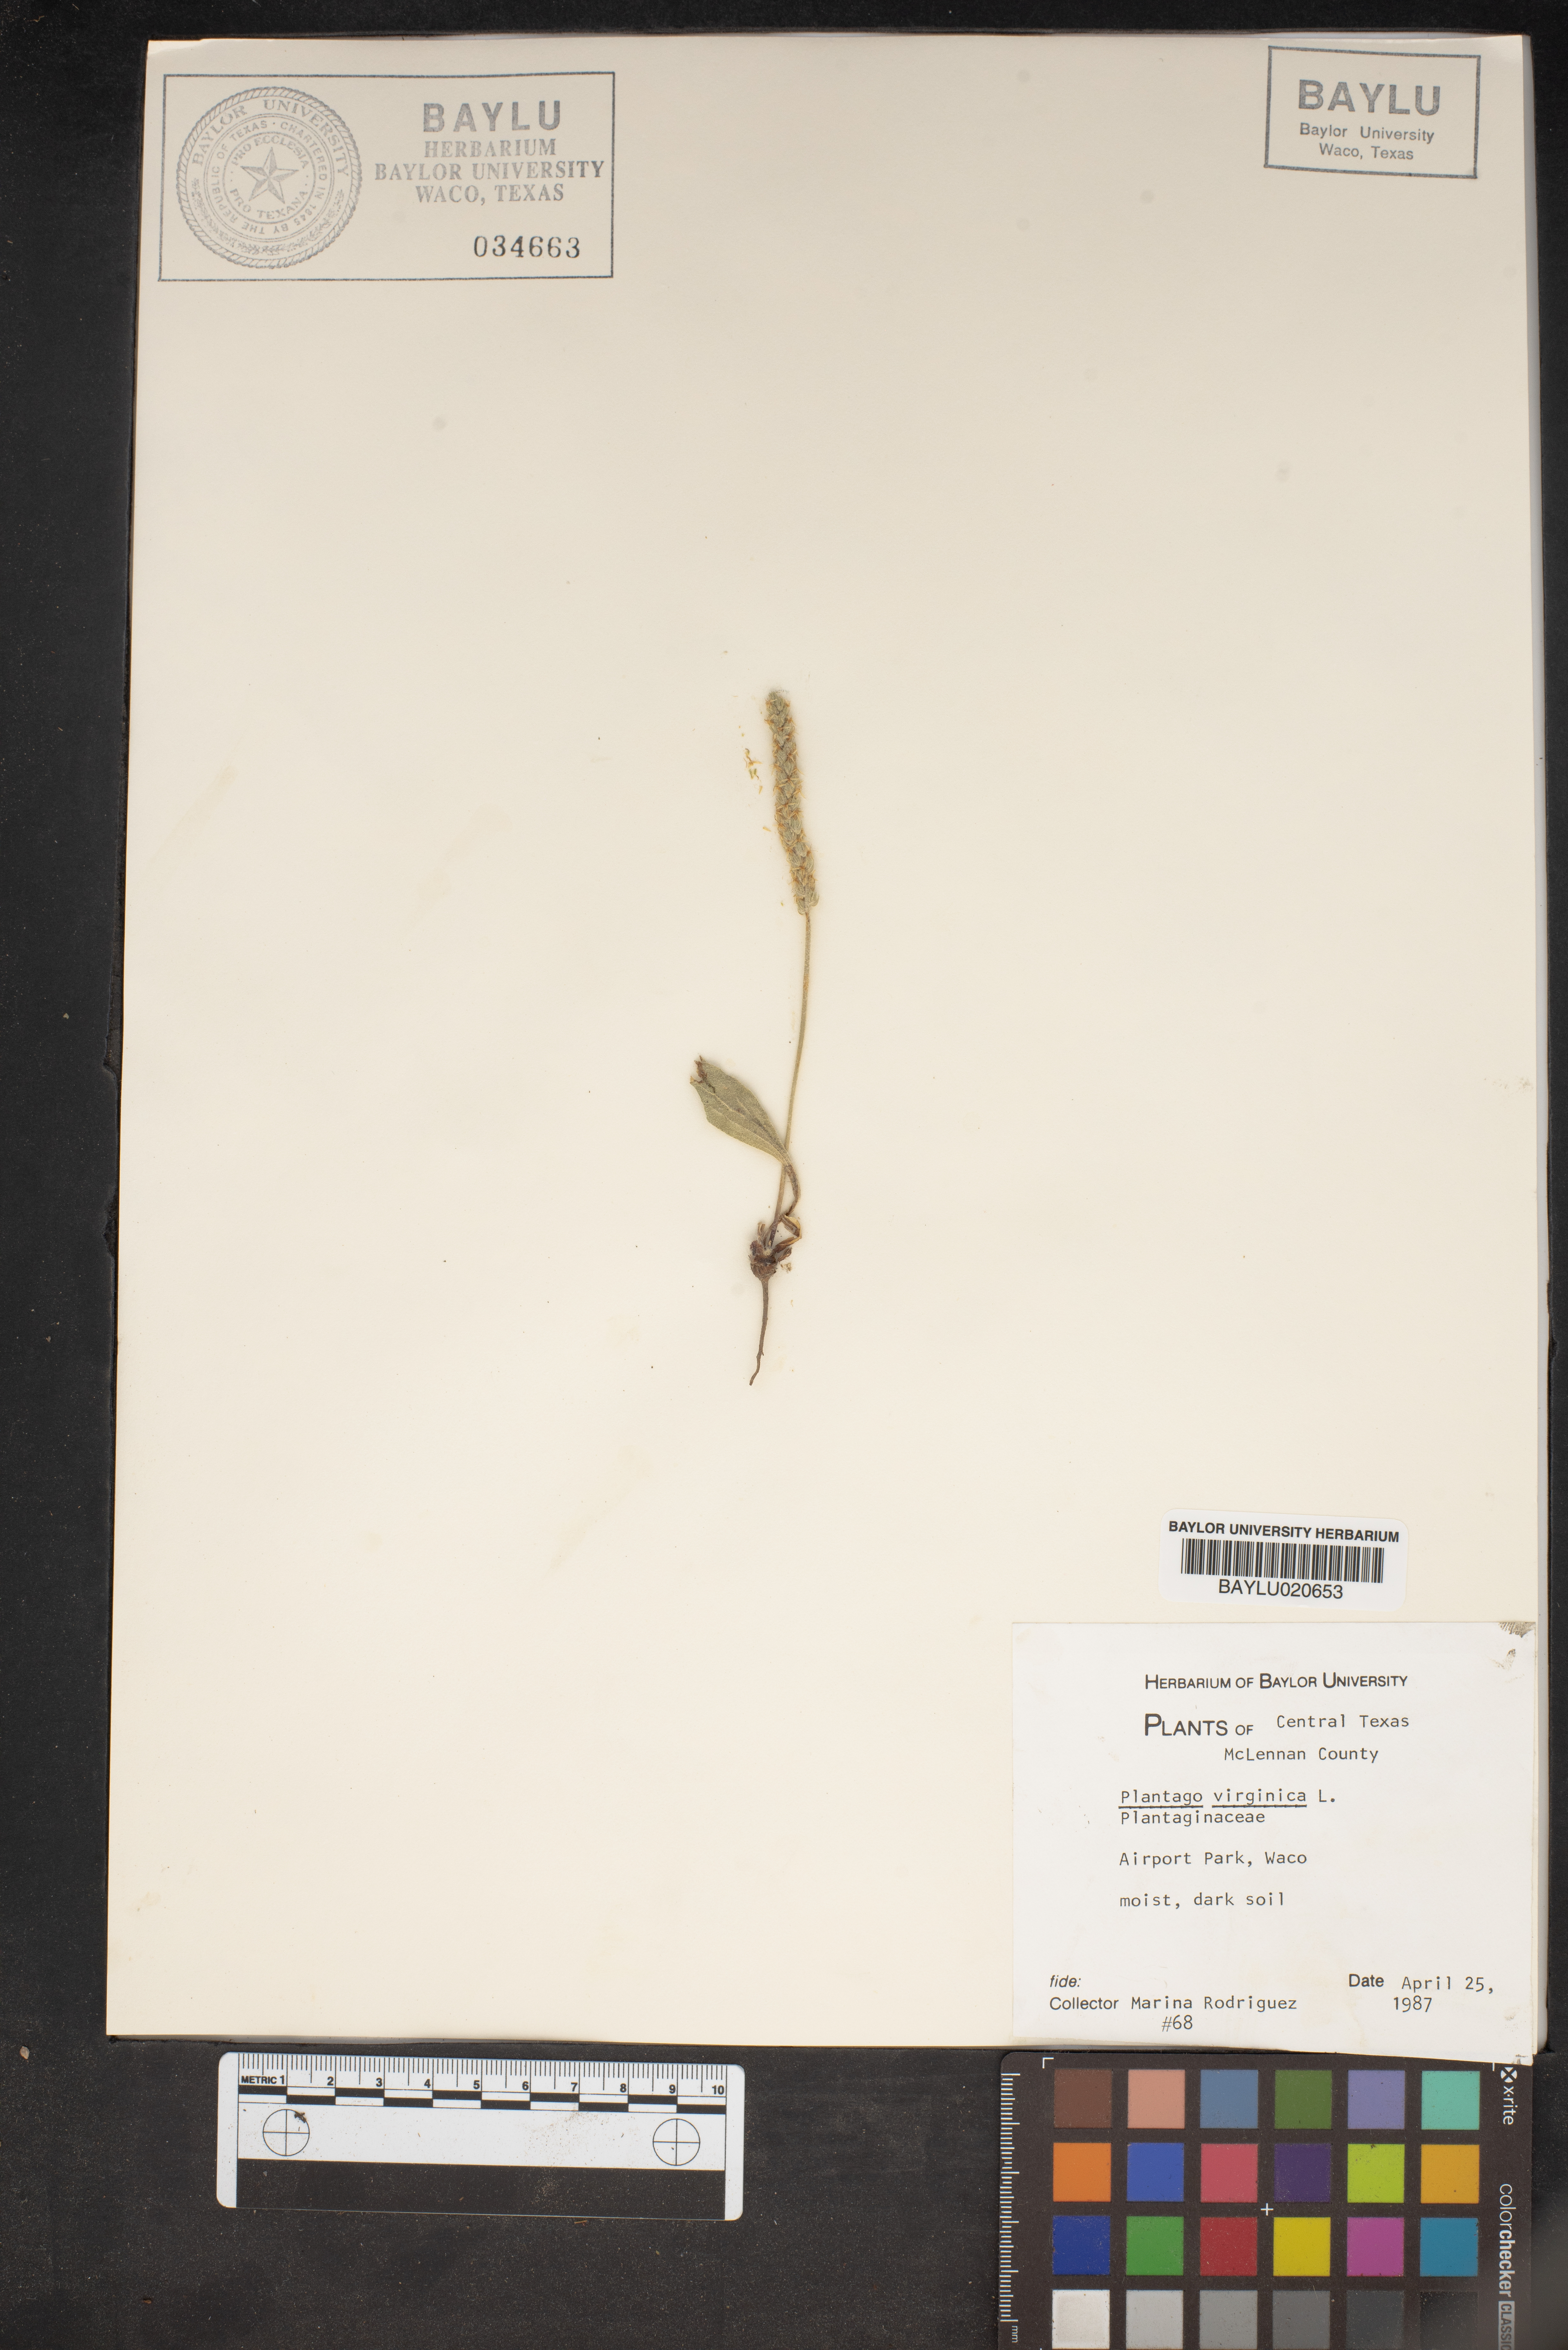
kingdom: Plantae
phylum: Tracheophyta
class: Magnoliopsida
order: Lamiales
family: Plantaginaceae
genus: Plantago
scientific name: Plantago virginica
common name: Hoary plantain
